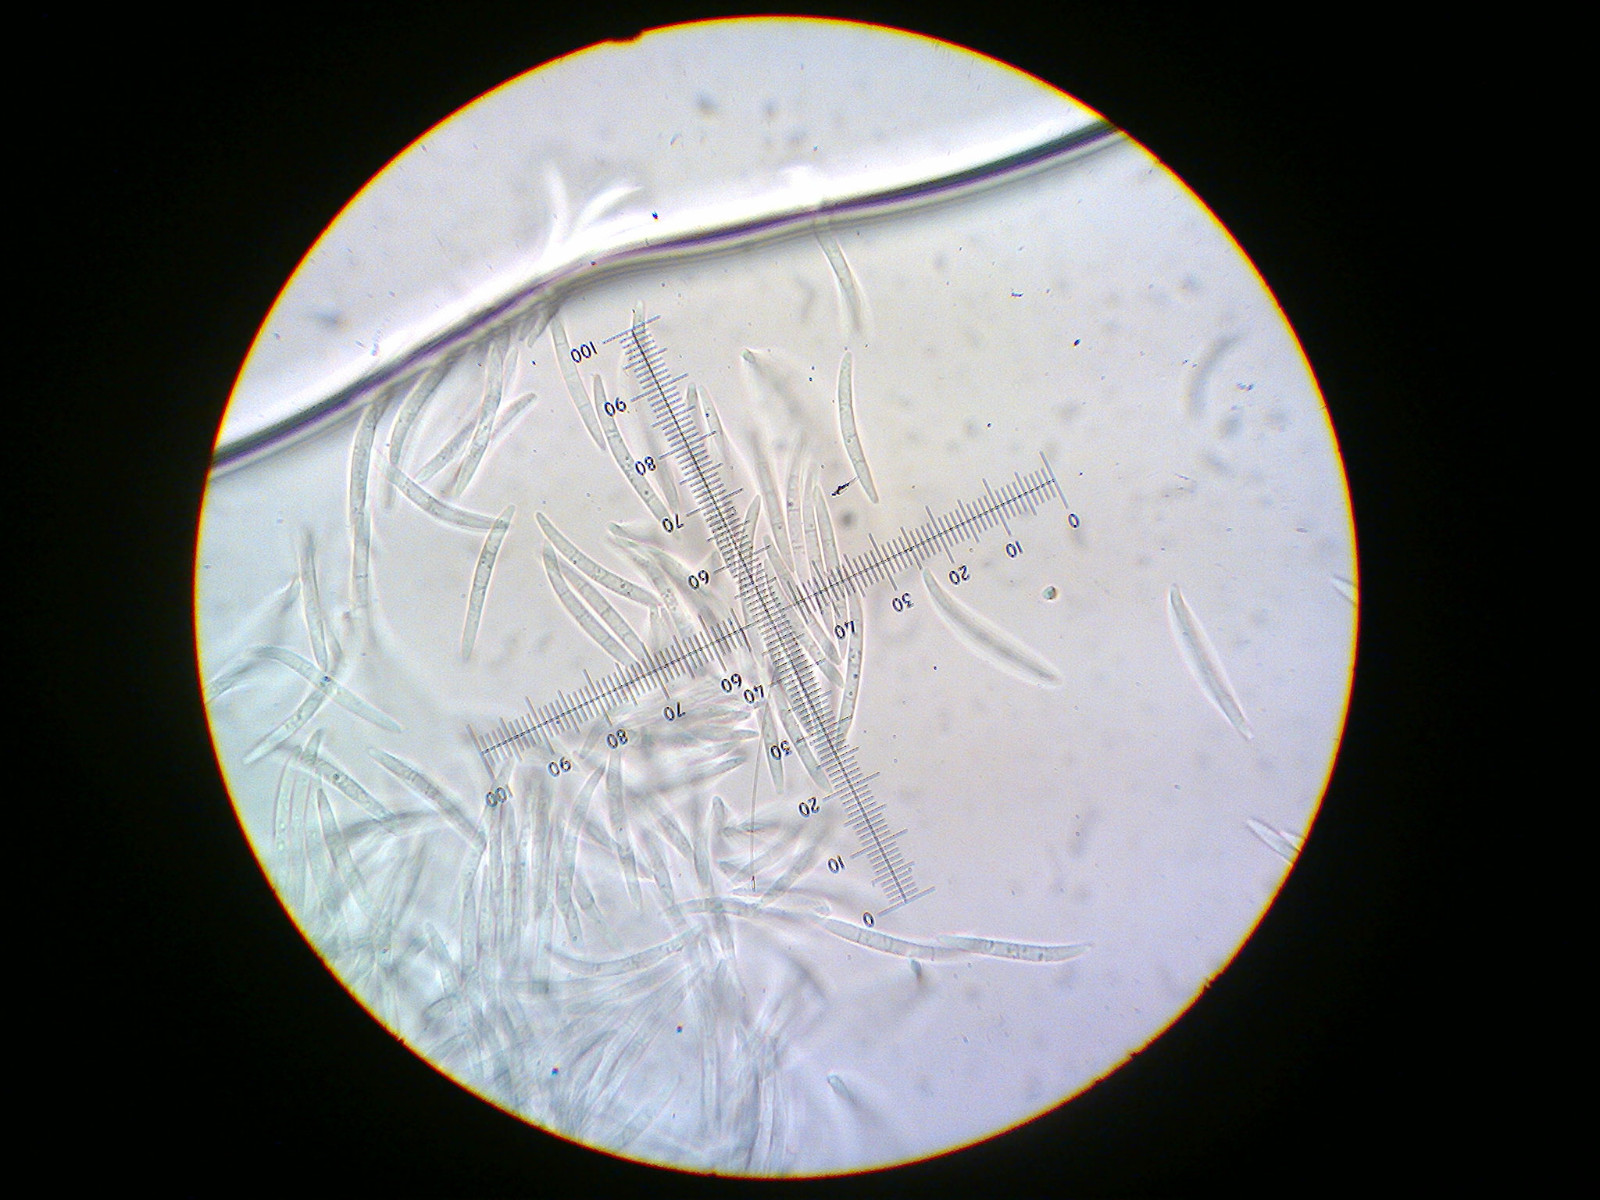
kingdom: Fungi
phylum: Ascomycota
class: Leotiomycetes
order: Chaetomellales
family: Chaetomellaceae
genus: Sphaerographium
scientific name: Sphaerographium squarrosum
